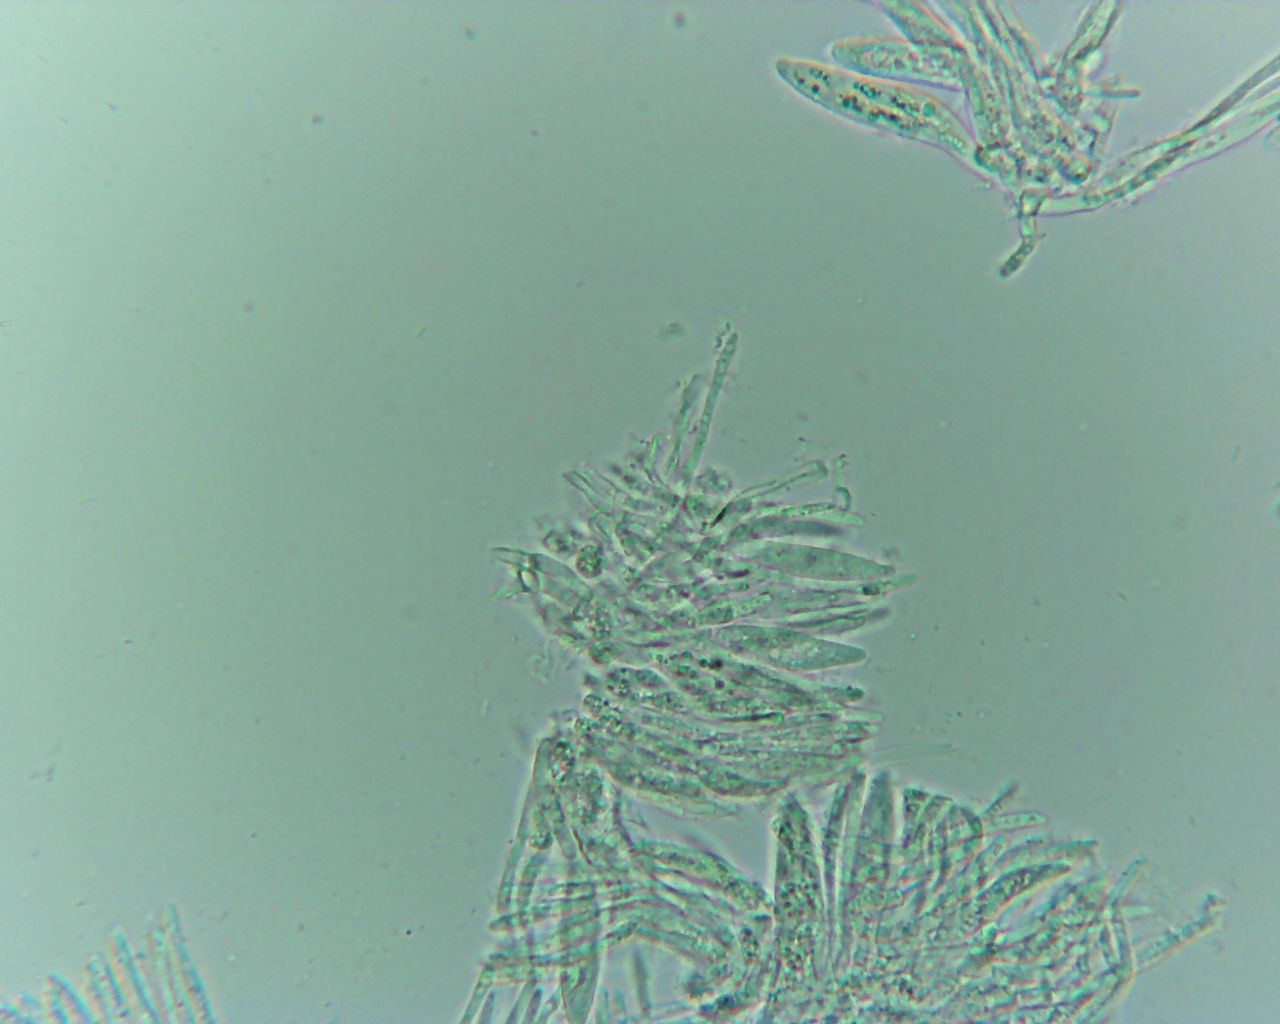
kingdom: Fungi
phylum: Ascomycota
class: Leotiomycetes
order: Helotiales
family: Dermateaceae
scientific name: Dermateaceae
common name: gråskivefamilien
